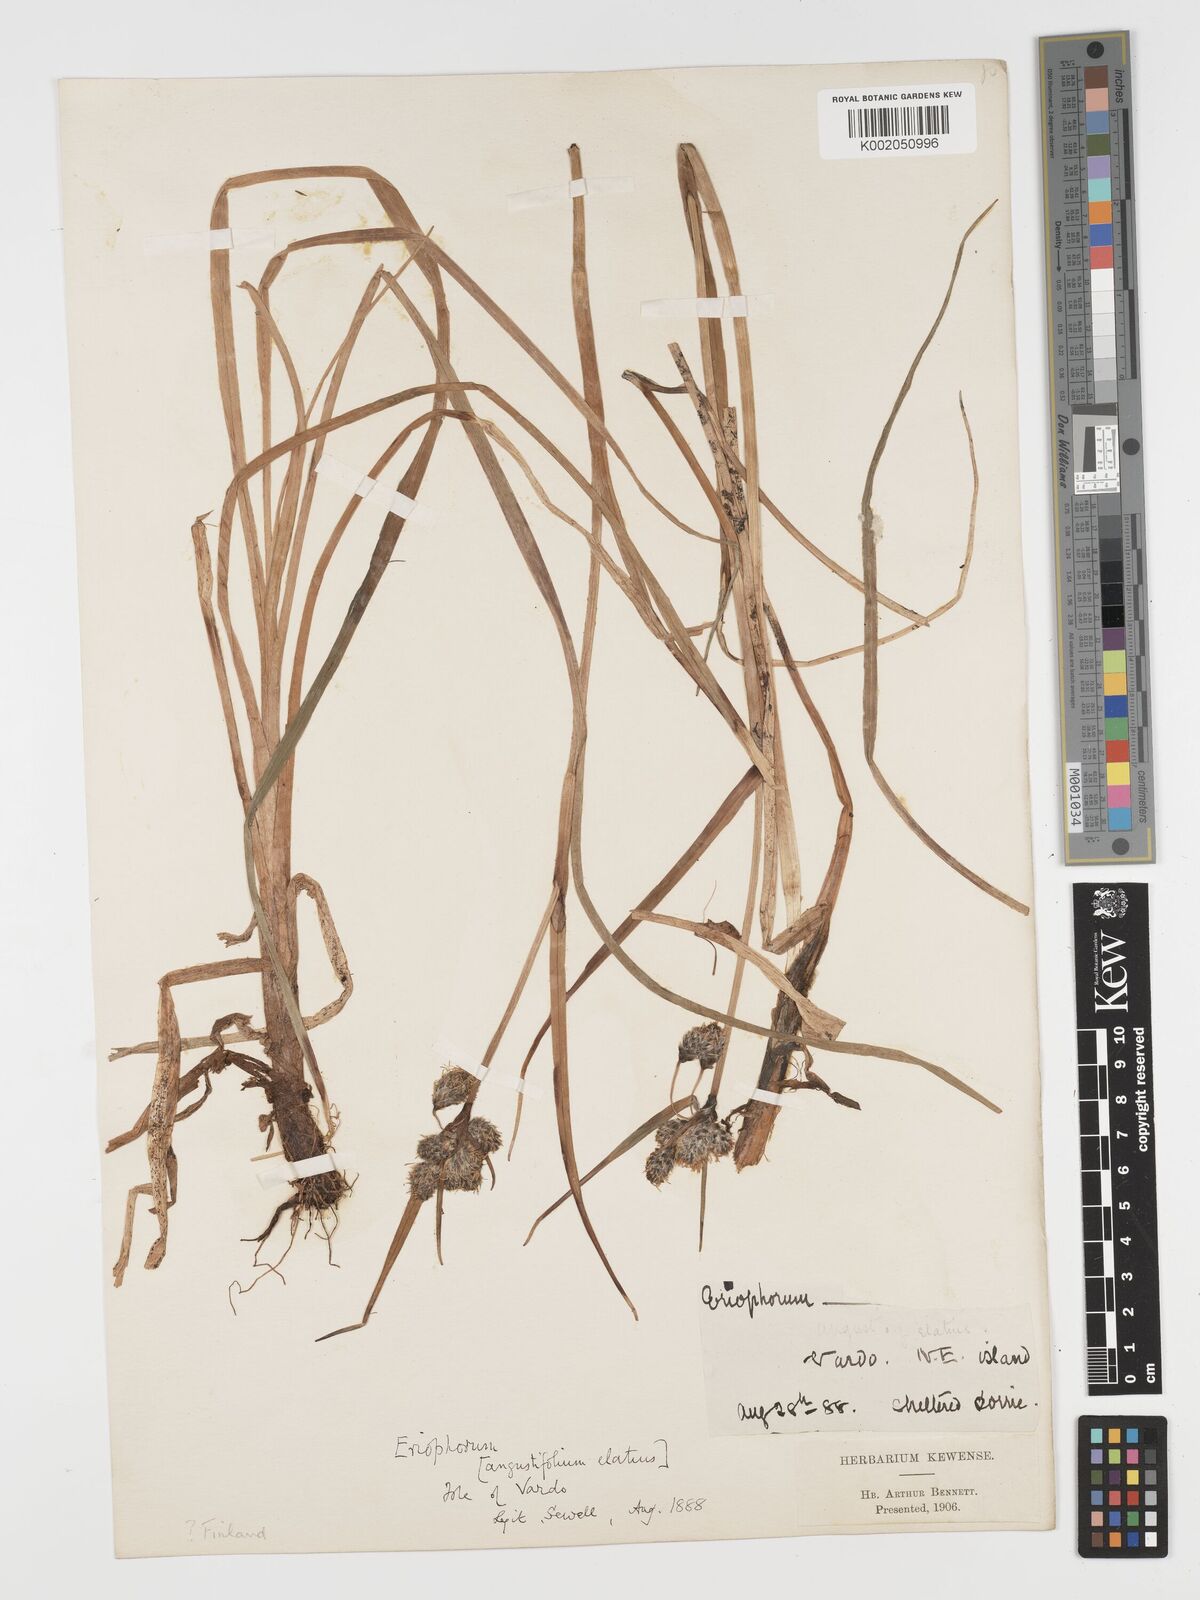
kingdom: Plantae
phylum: Tracheophyta
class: Liliopsida
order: Poales
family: Cyperaceae
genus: Eriophorum
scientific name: Eriophorum angustifolium
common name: Common cottongrass
